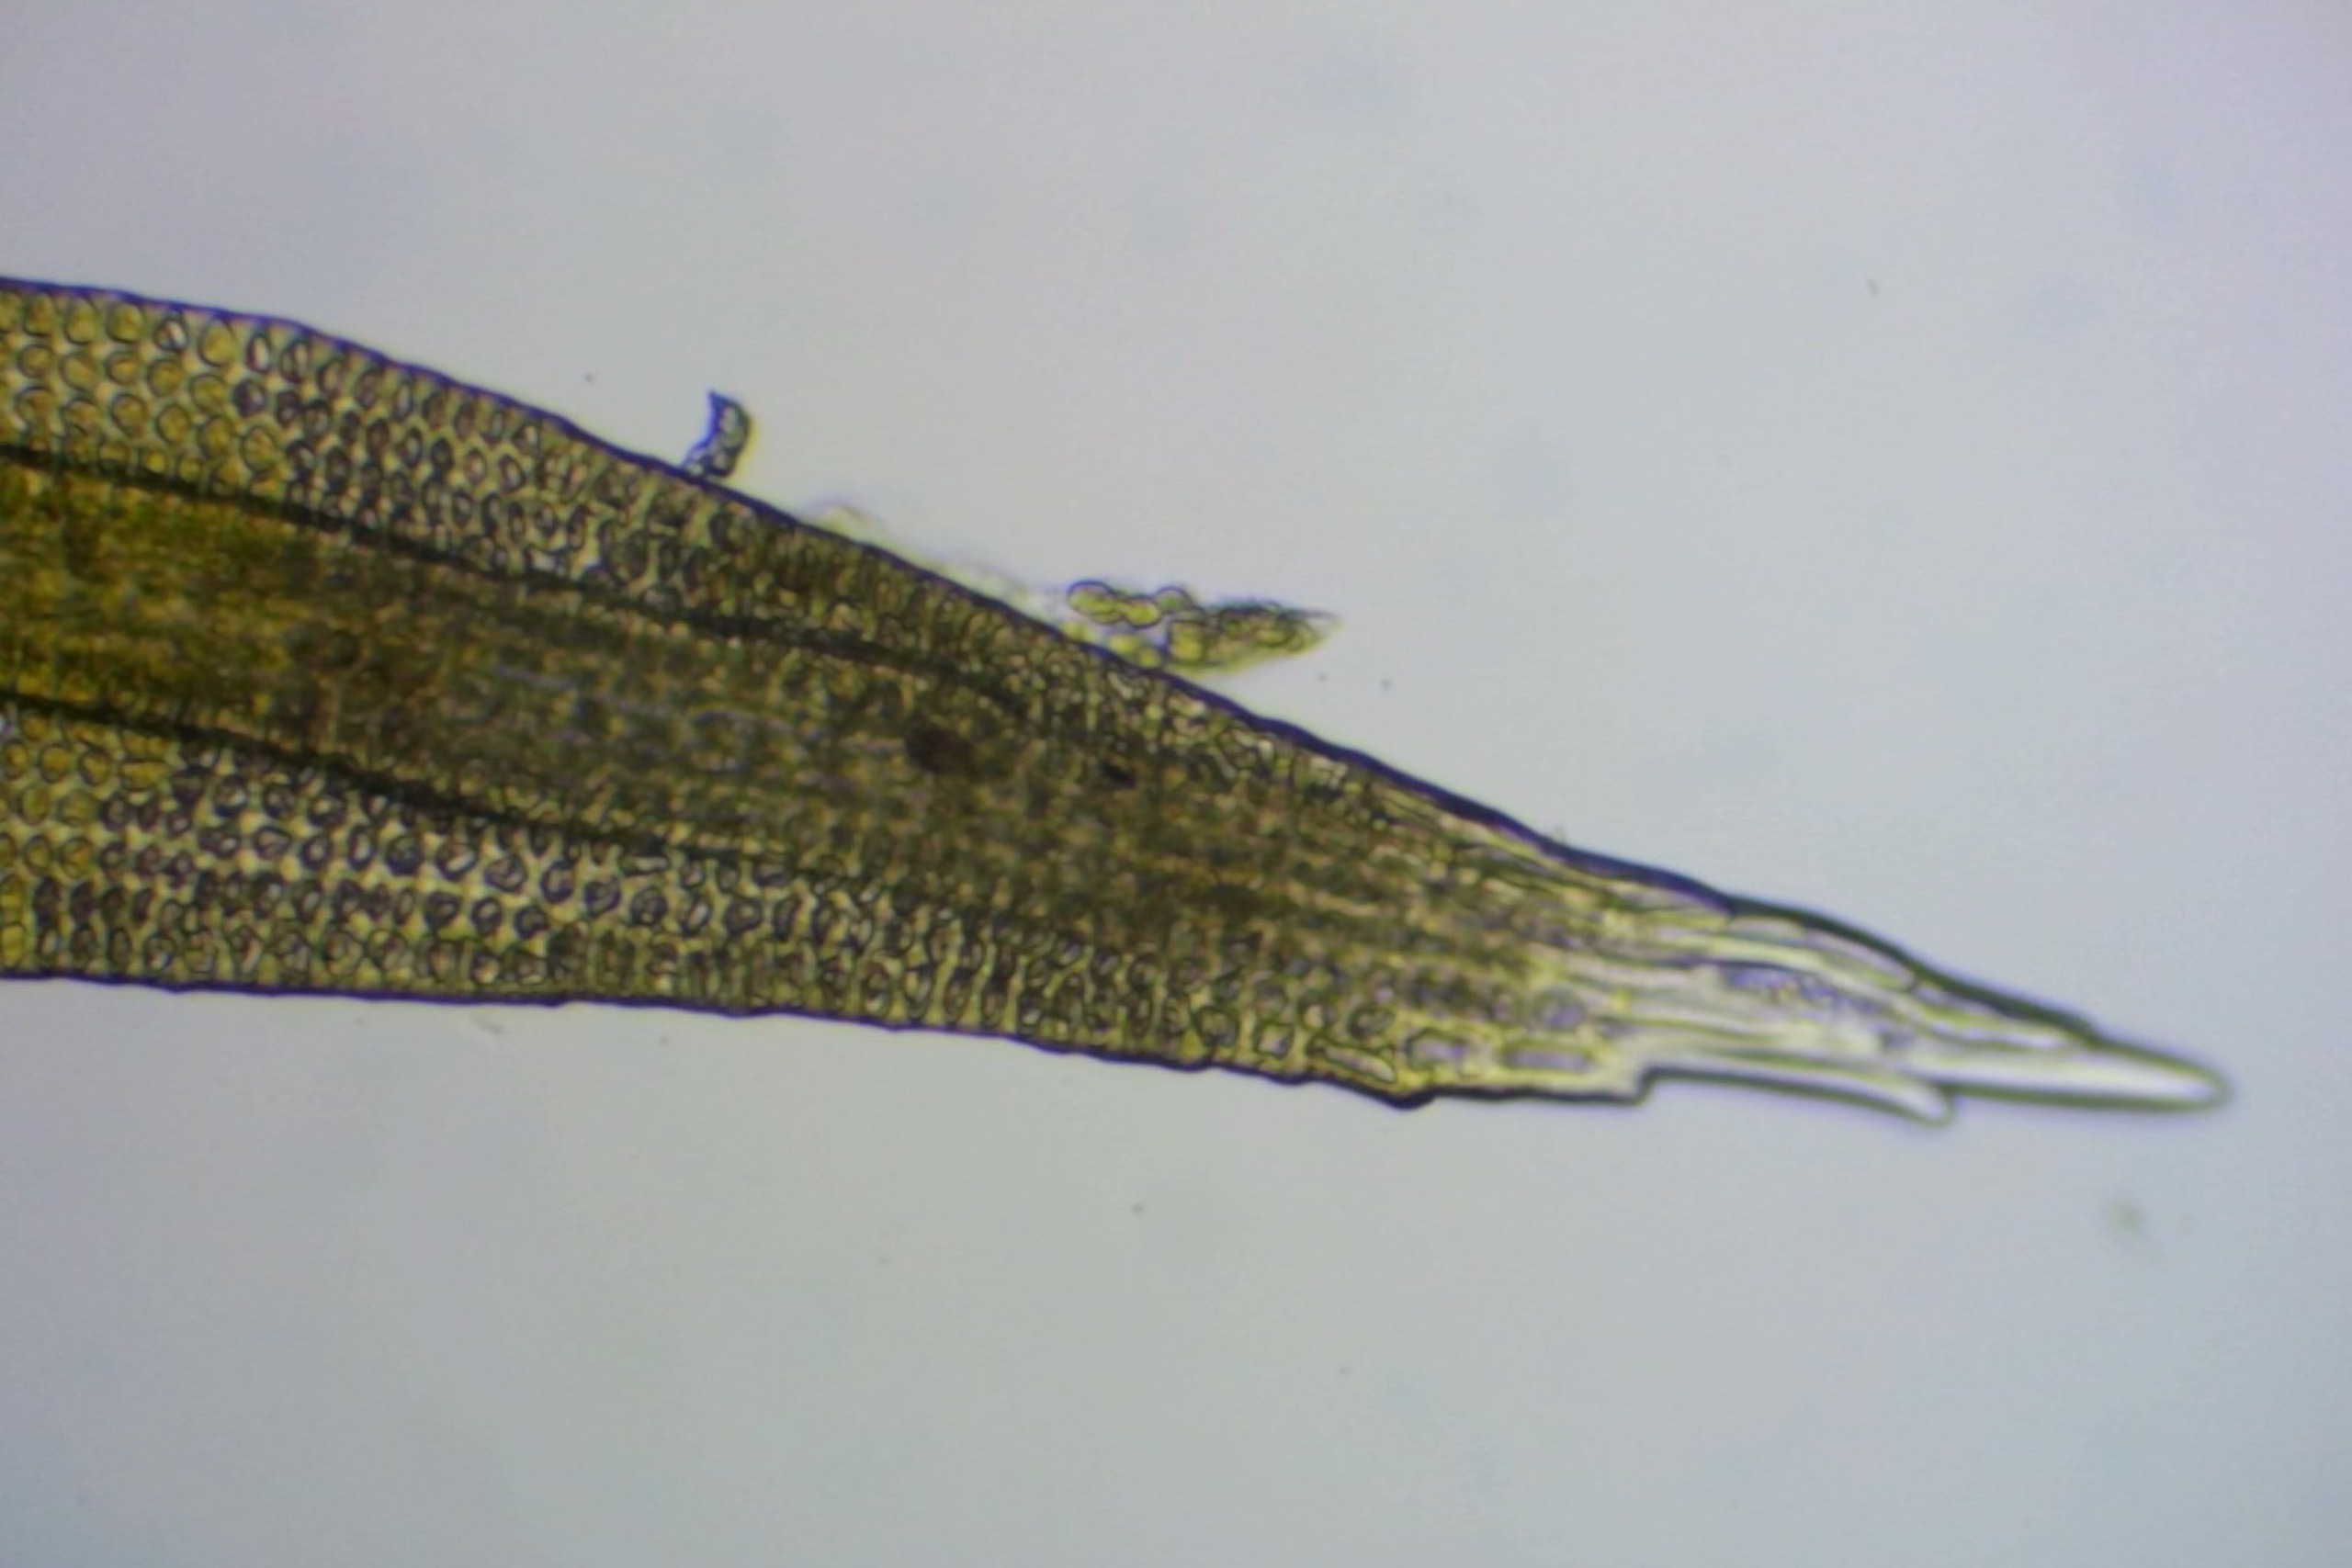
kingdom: Plantae
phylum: Bryophyta
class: Bryopsida
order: Grimmiales
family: Grimmiaceae
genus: Bucklandiella
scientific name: Bucklandiella sudetica
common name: Sudeter-børstemos
